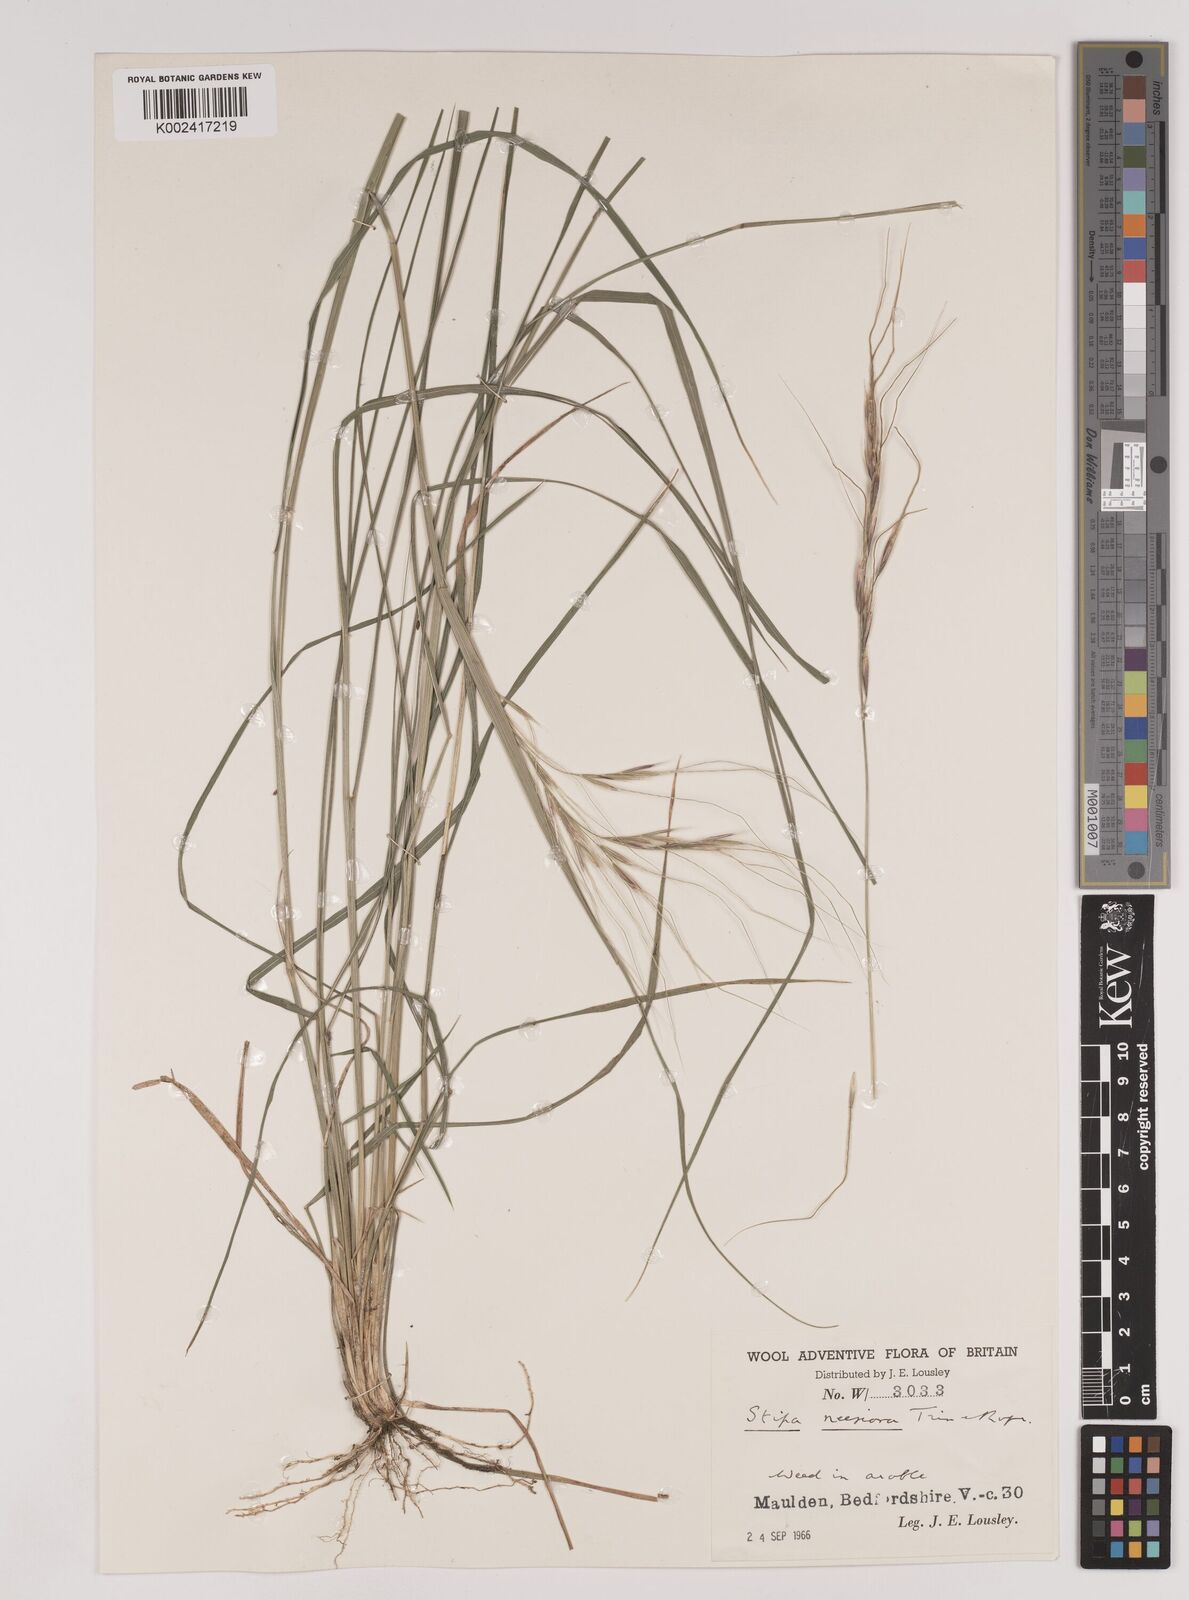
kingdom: Plantae
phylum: Tracheophyta
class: Liliopsida
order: Poales
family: Poaceae
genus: Nassella
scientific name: Nassella neesiana
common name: American needle-grass
